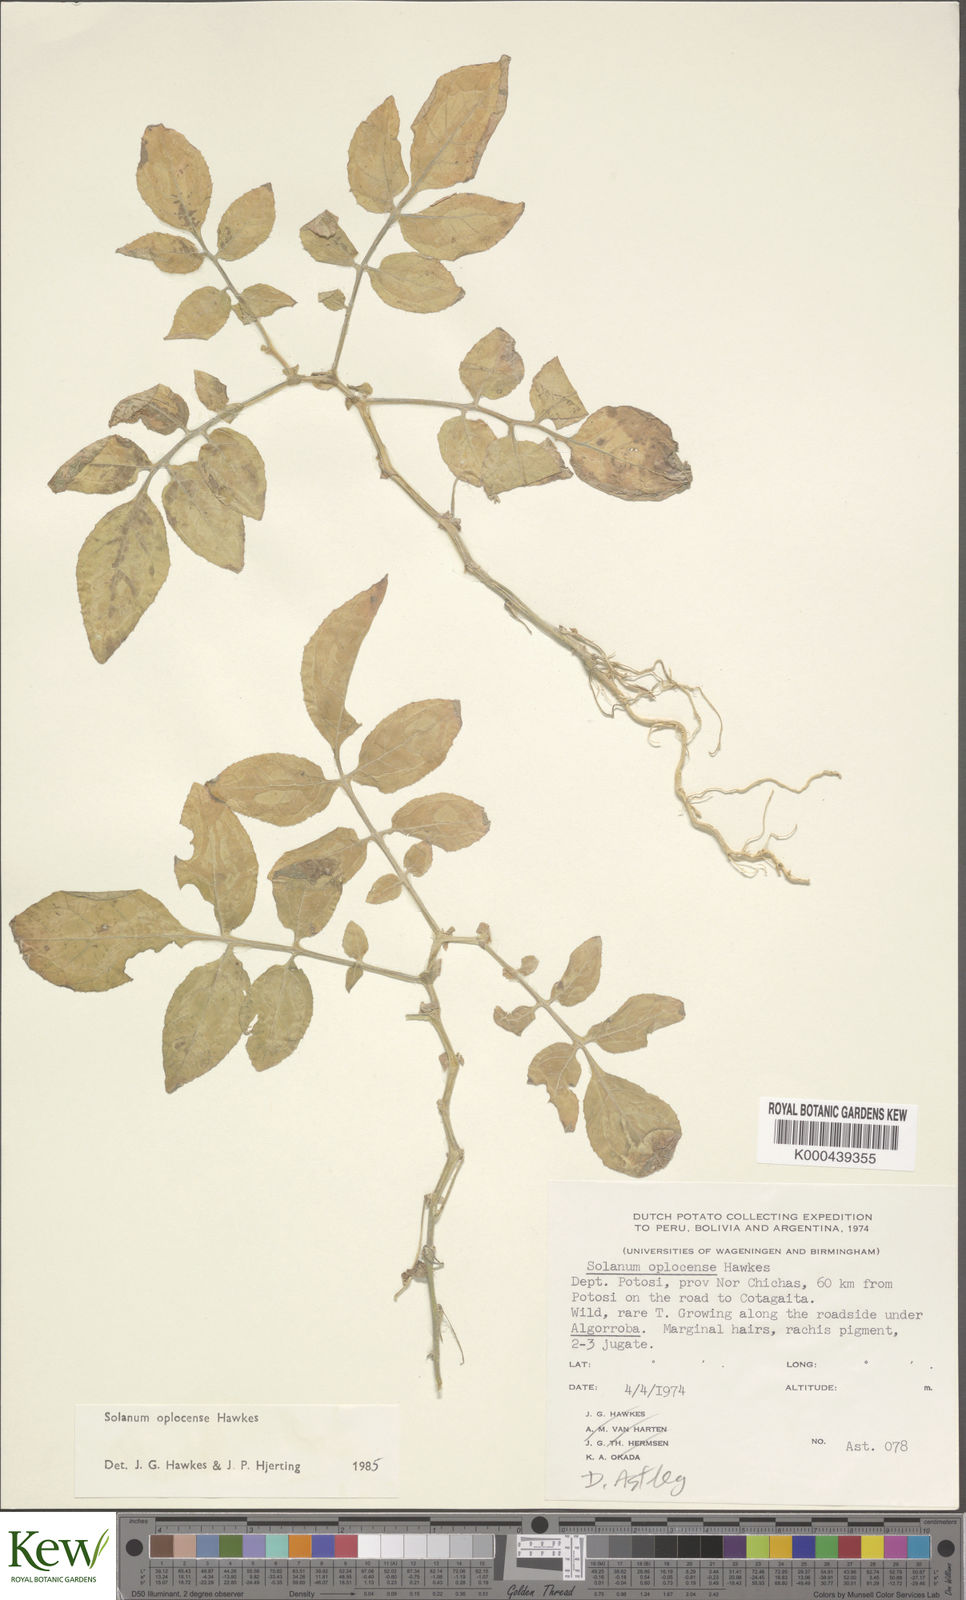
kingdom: Plantae
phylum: Tracheophyta
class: Magnoliopsida
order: Solanales
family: Solanaceae
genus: Solanum
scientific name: Solanum brevicaule
